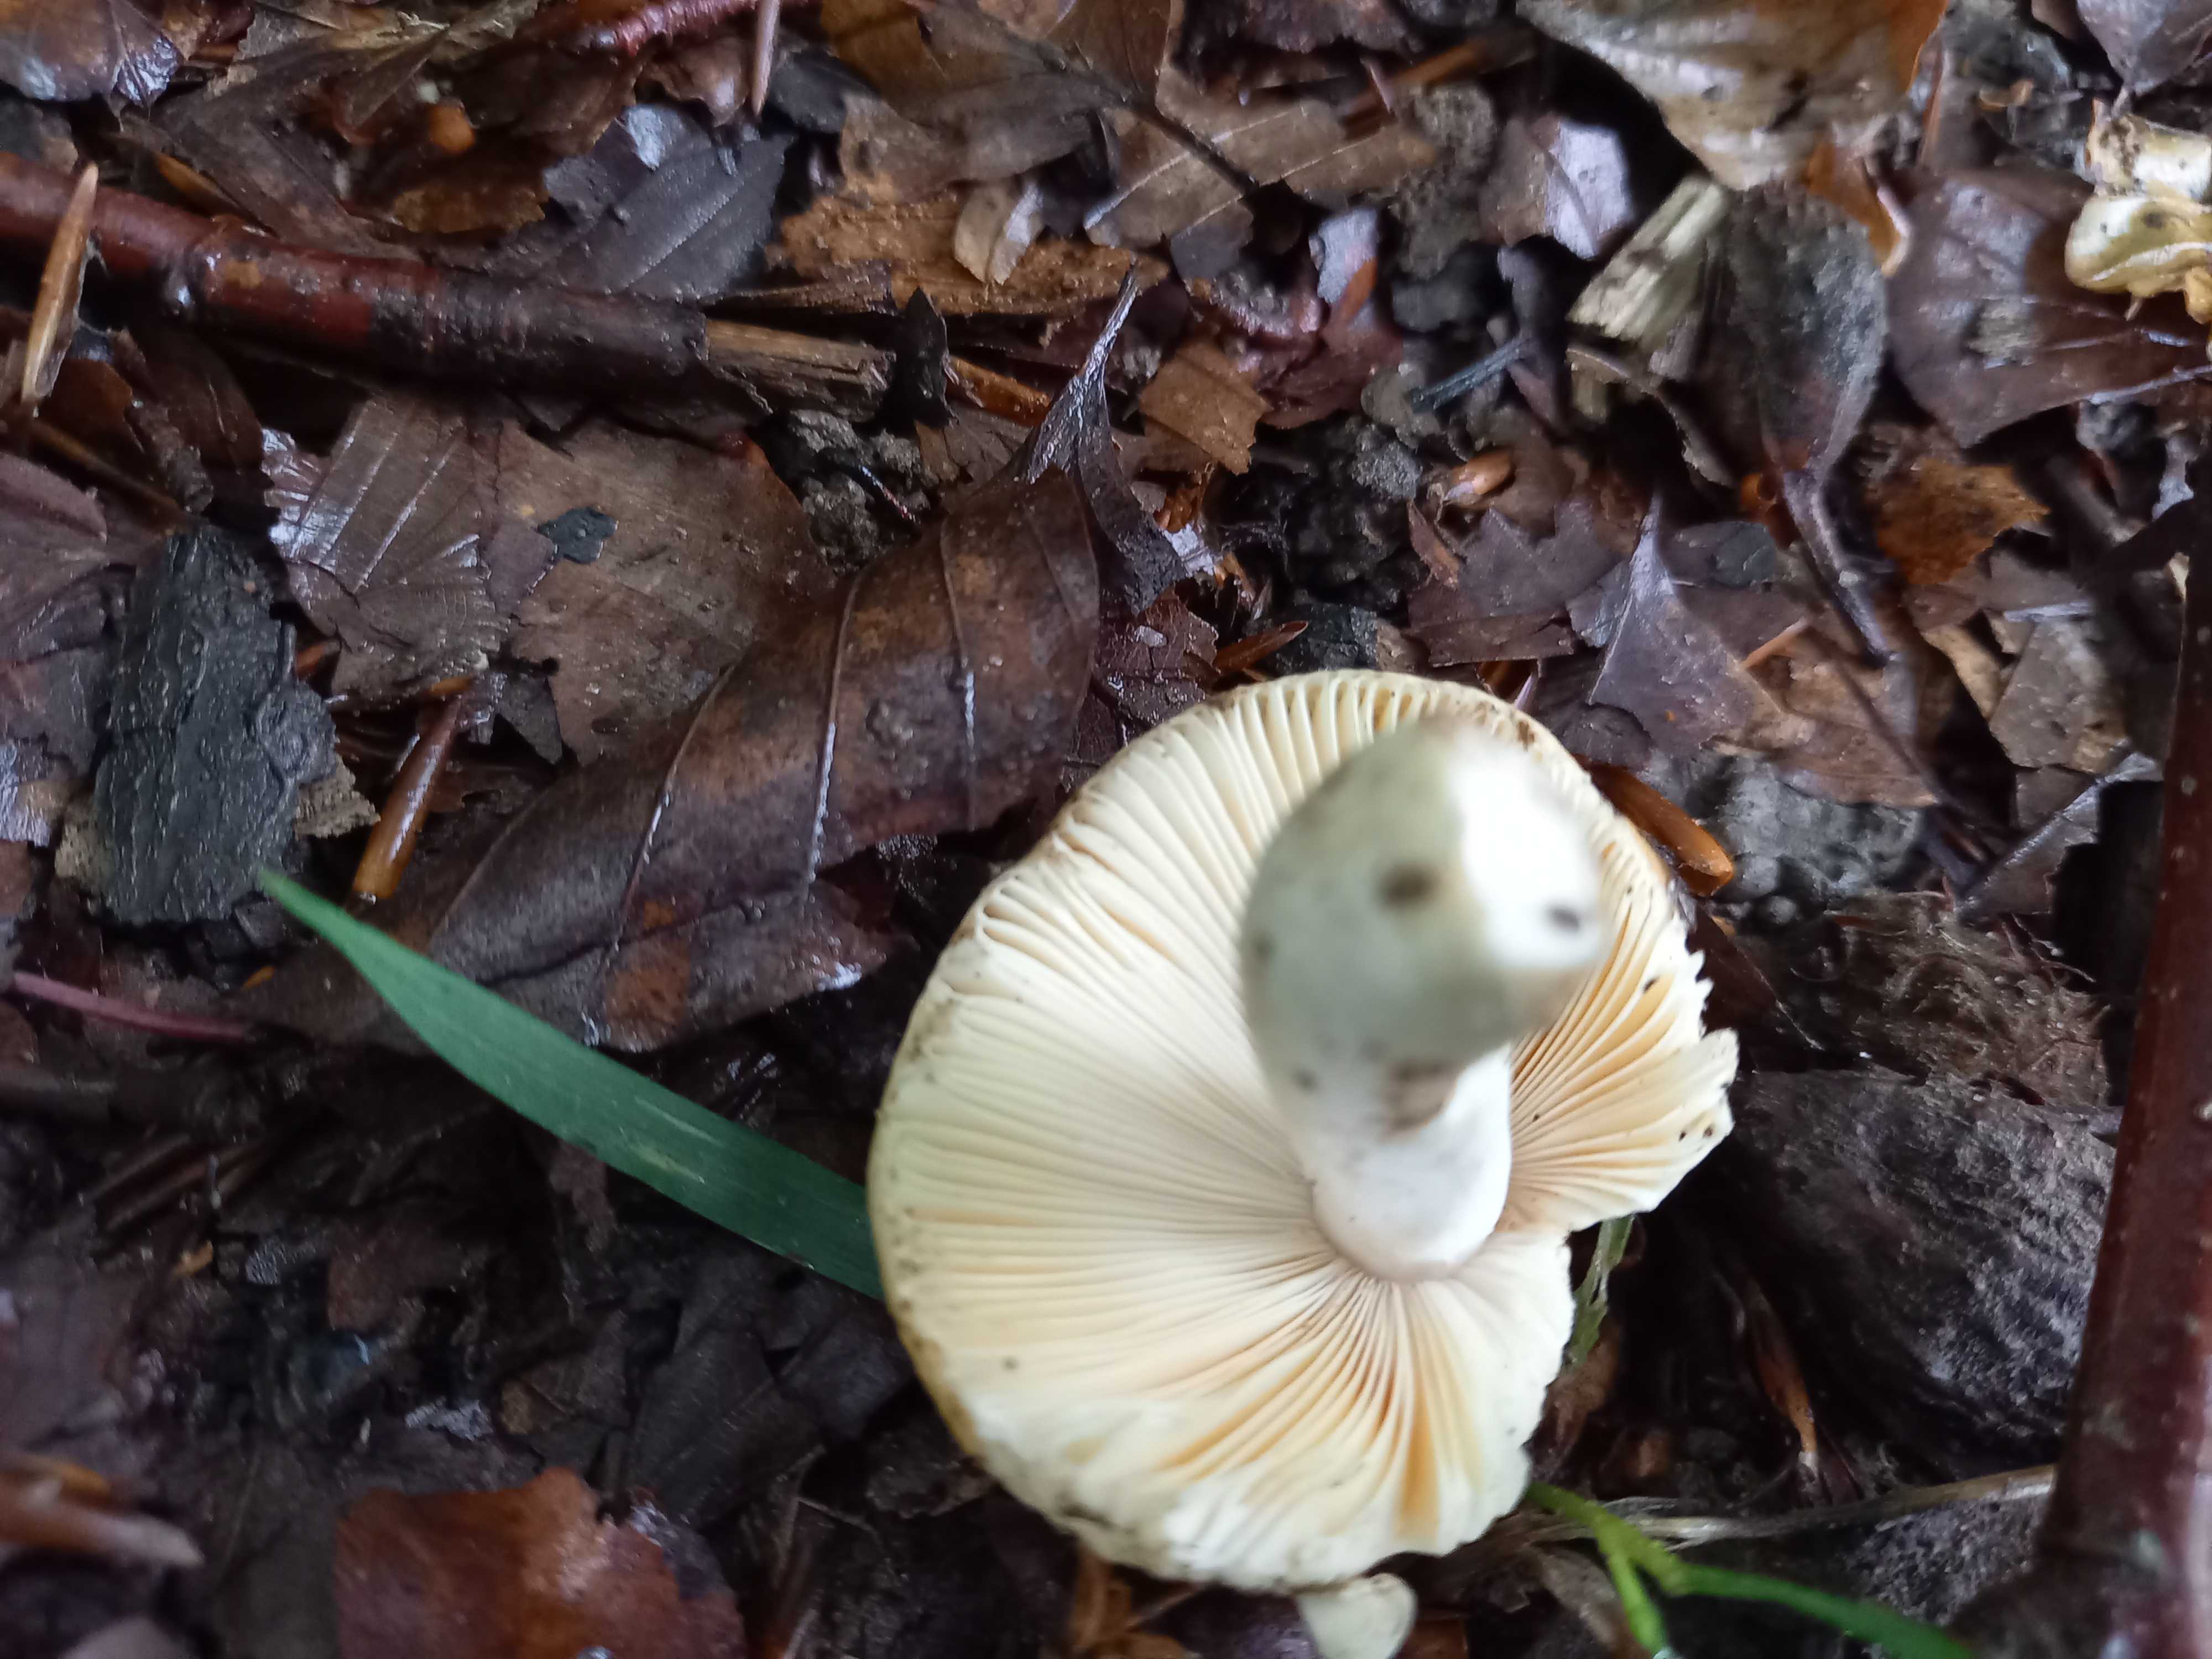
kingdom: Fungi
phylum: Basidiomycota
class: Agaricomycetes
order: Russulales
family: Russulaceae
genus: Russula
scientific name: Russula risigallina
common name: abrikos-skørhat
